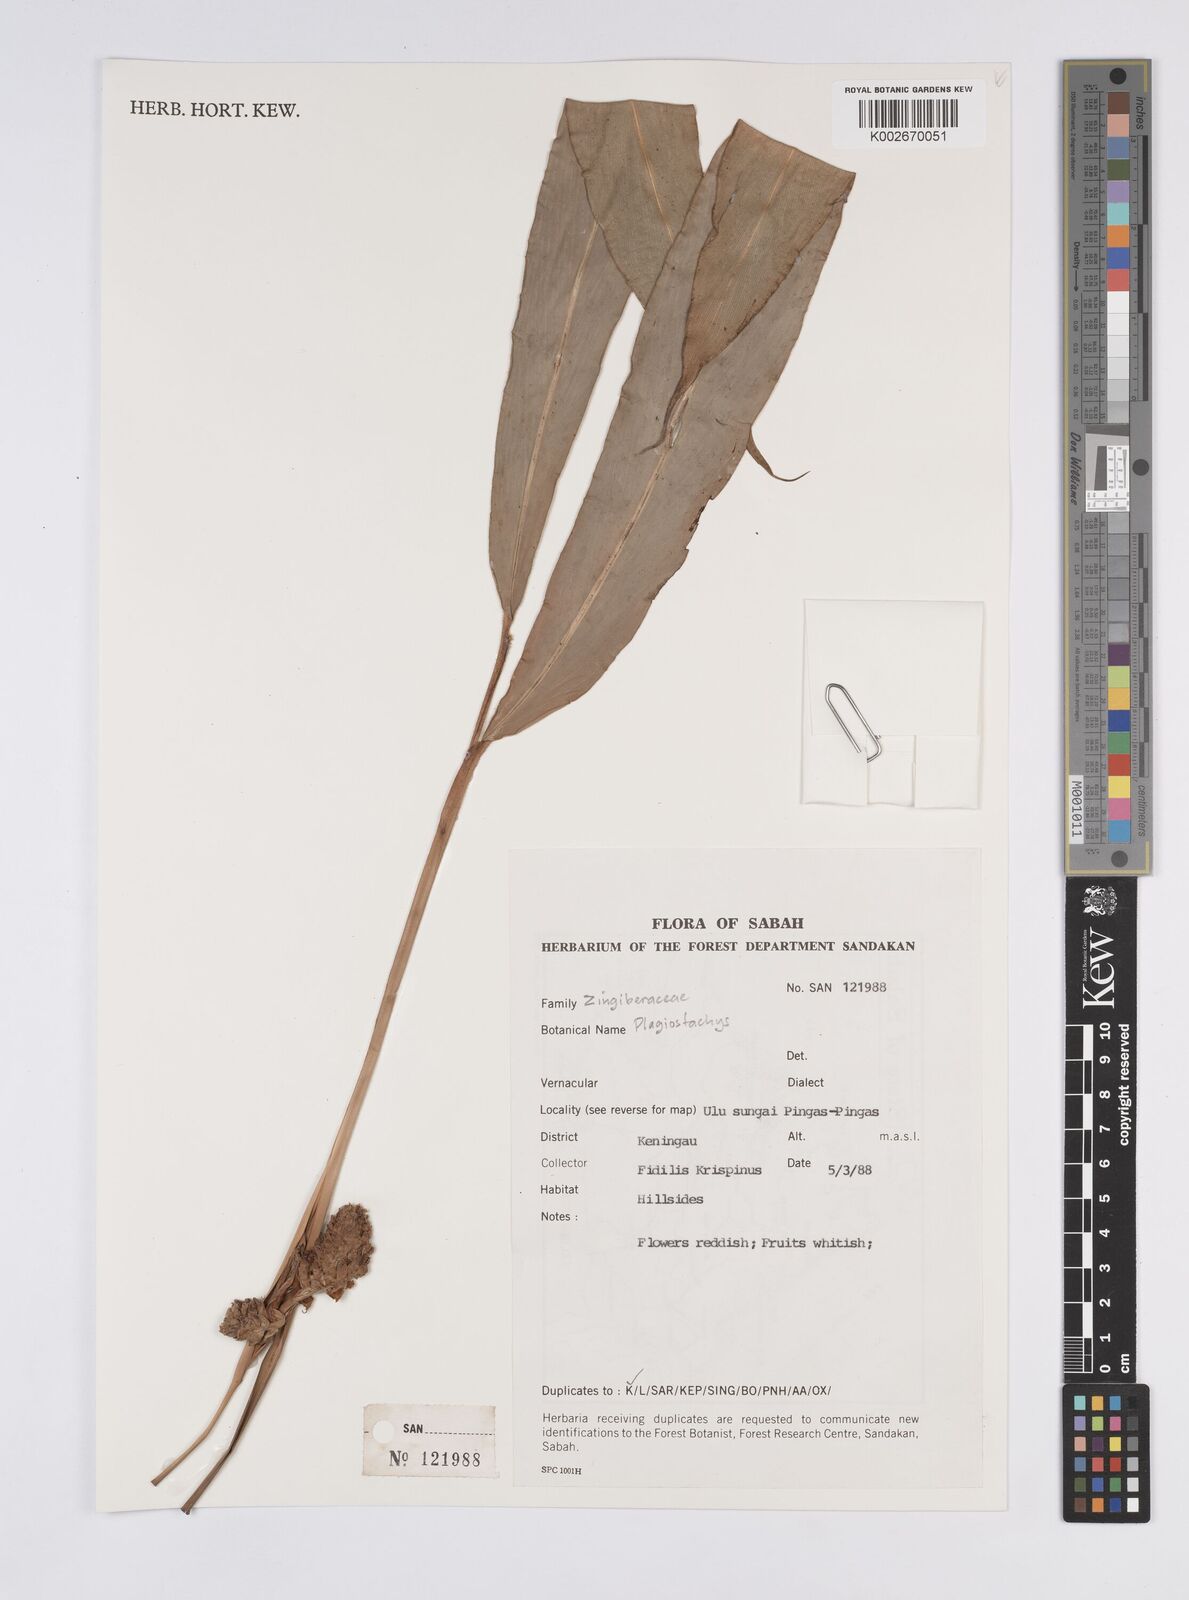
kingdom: Plantae
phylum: Tracheophyta
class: Liliopsida
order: Zingiberales
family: Zingiberaceae
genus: Plagiostachys
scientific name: Plagiostachys
